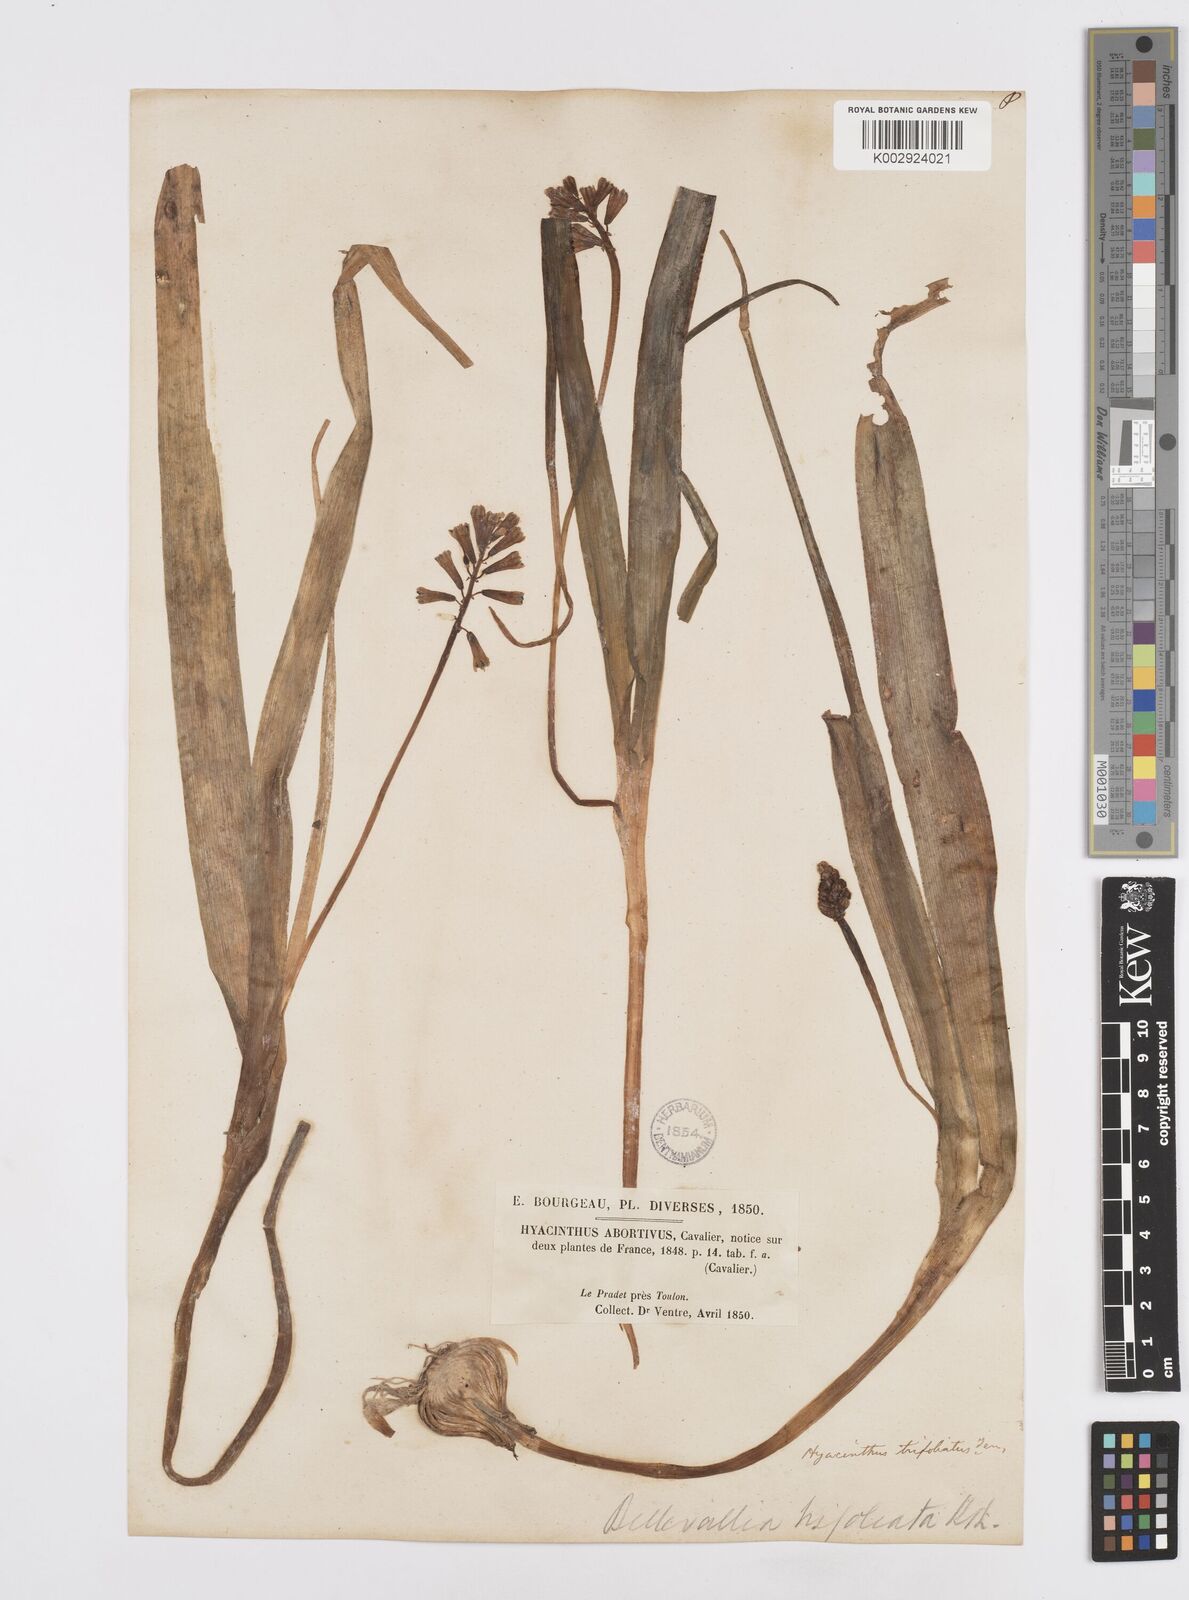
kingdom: Plantae
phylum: Tracheophyta
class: Liliopsida
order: Asparagales
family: Asparagaceae
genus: Bellevalia
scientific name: Bellevalia trifoliata
